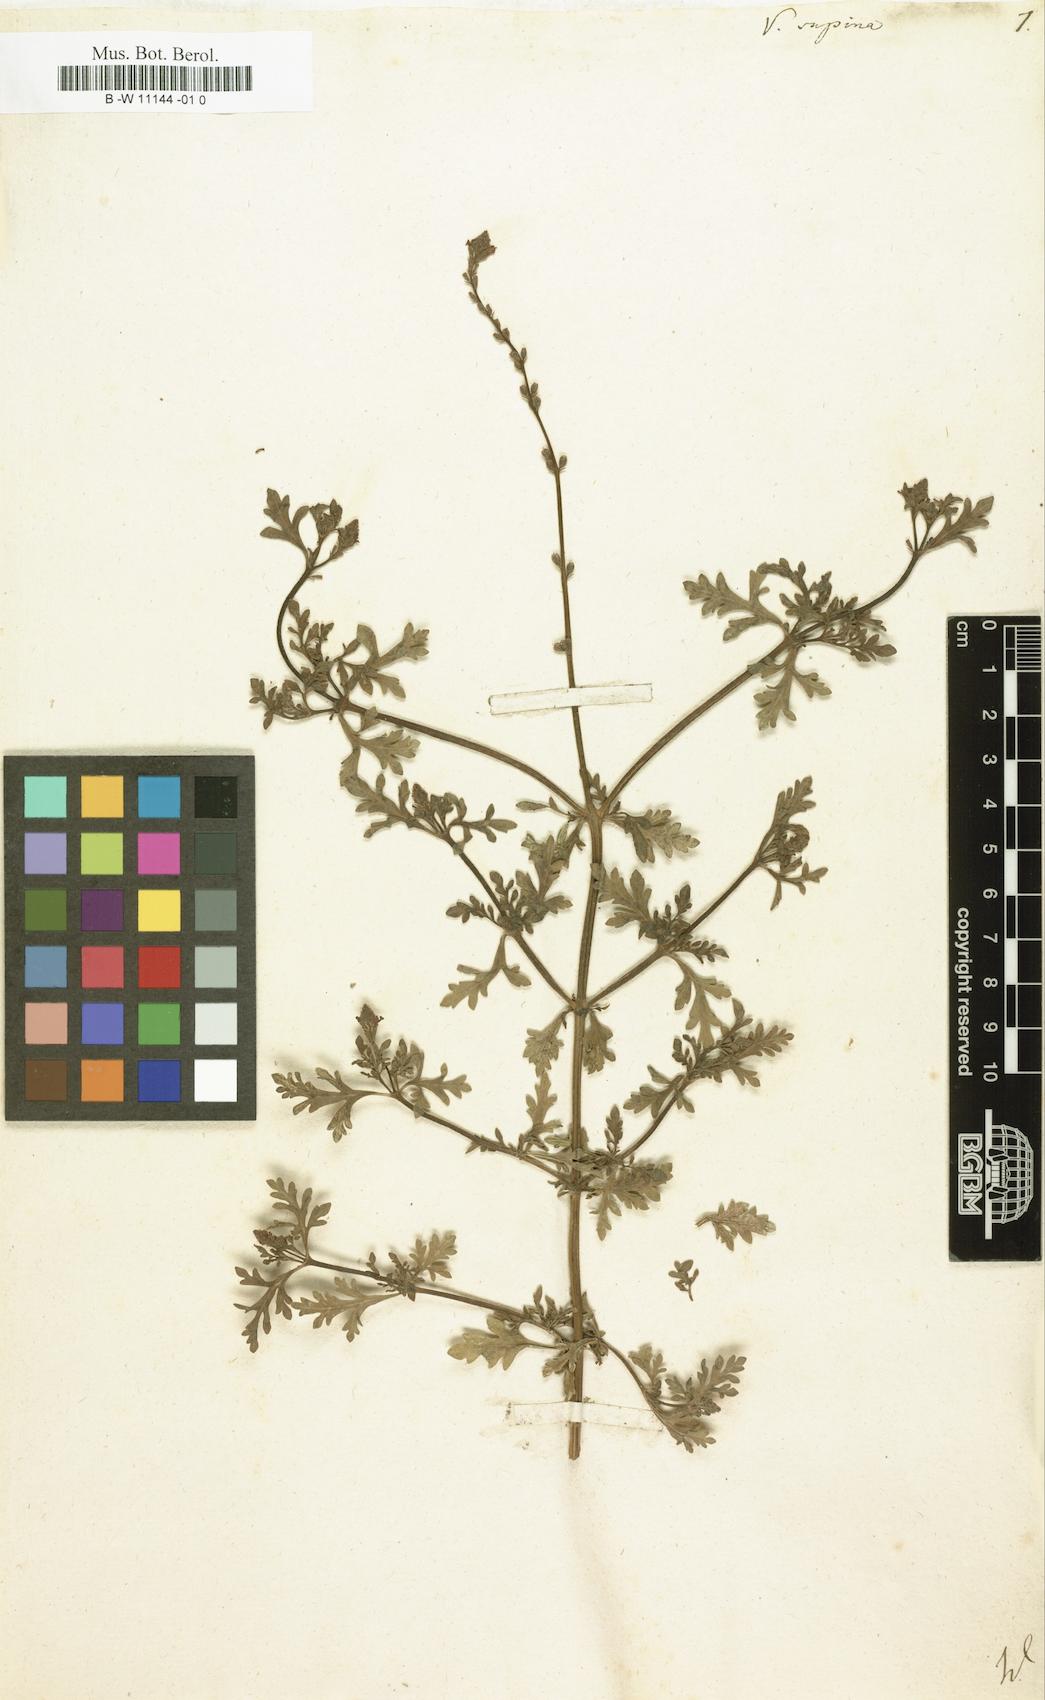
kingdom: Plantae
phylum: Tracheophyta
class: Magnoliopsida
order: Lamiales
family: Verbenaceae
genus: Verbena
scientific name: Verbena supina
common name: Trailing vervain
